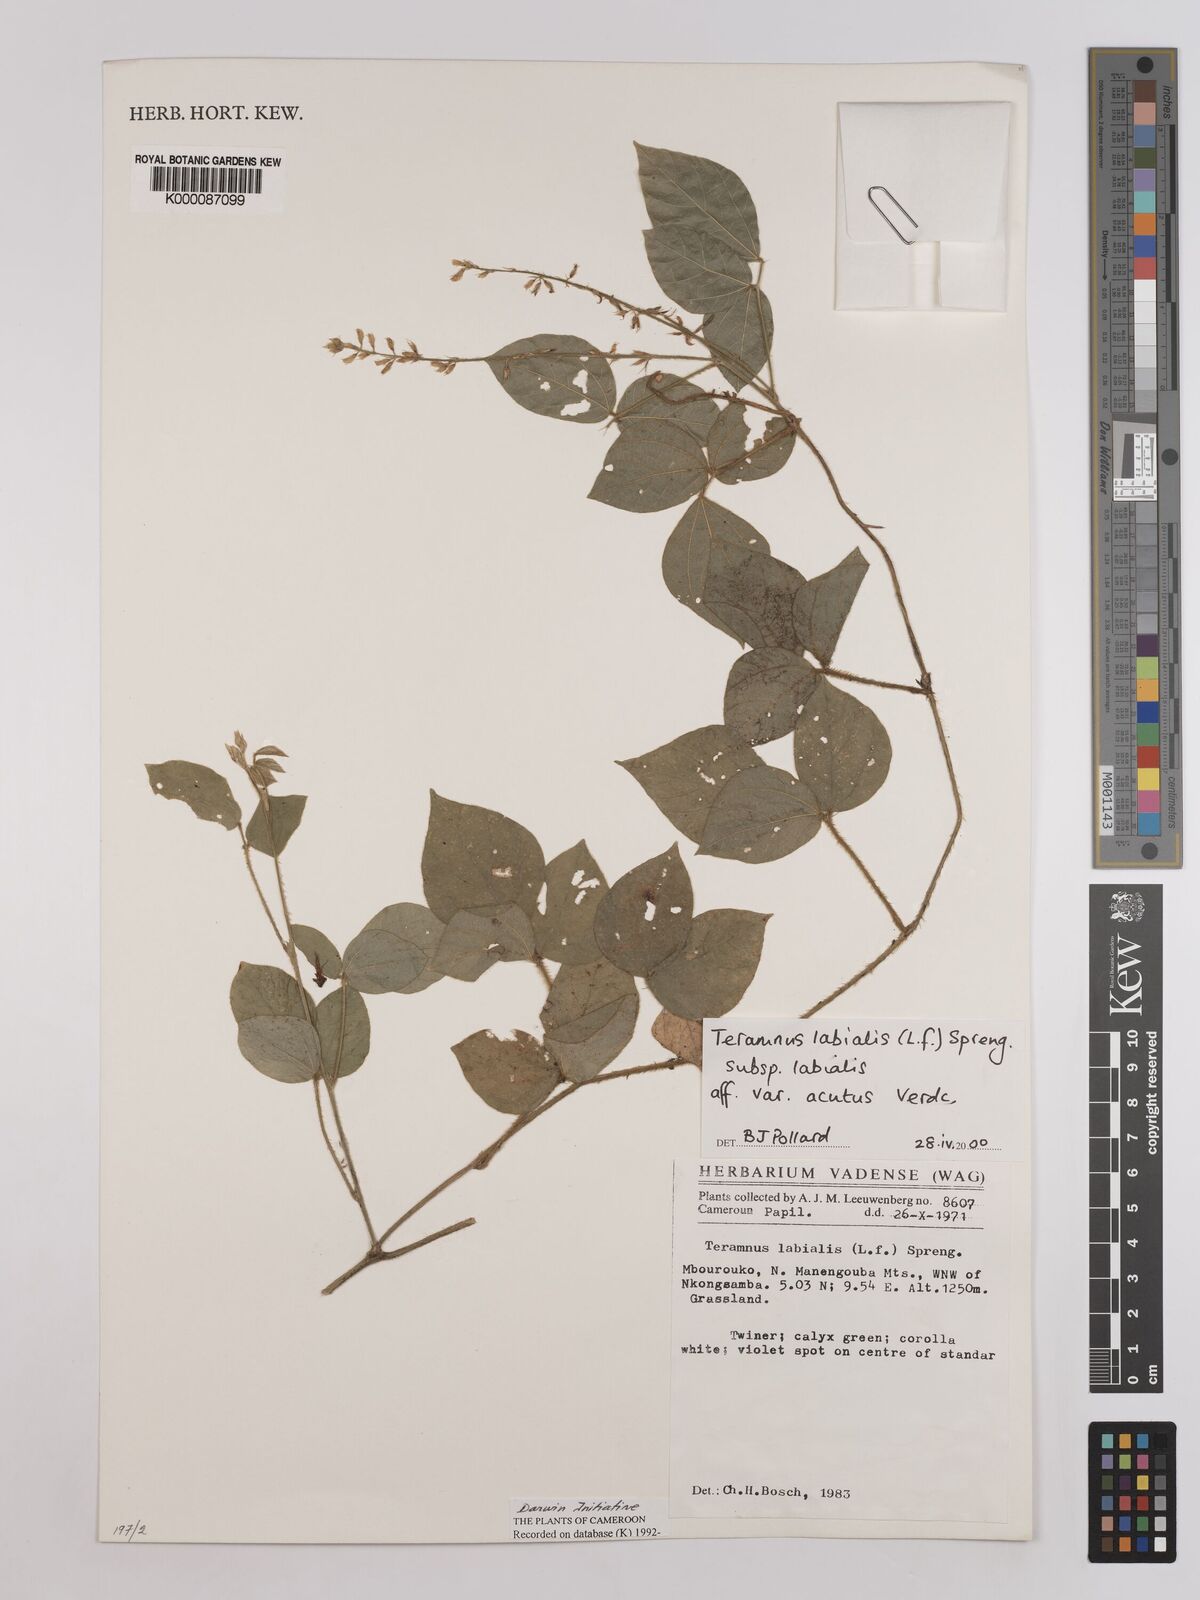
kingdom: Plantae
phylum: Tracheophyta
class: Magnoliopsida
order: Fabales
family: Fabaceae
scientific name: Fabaceae
